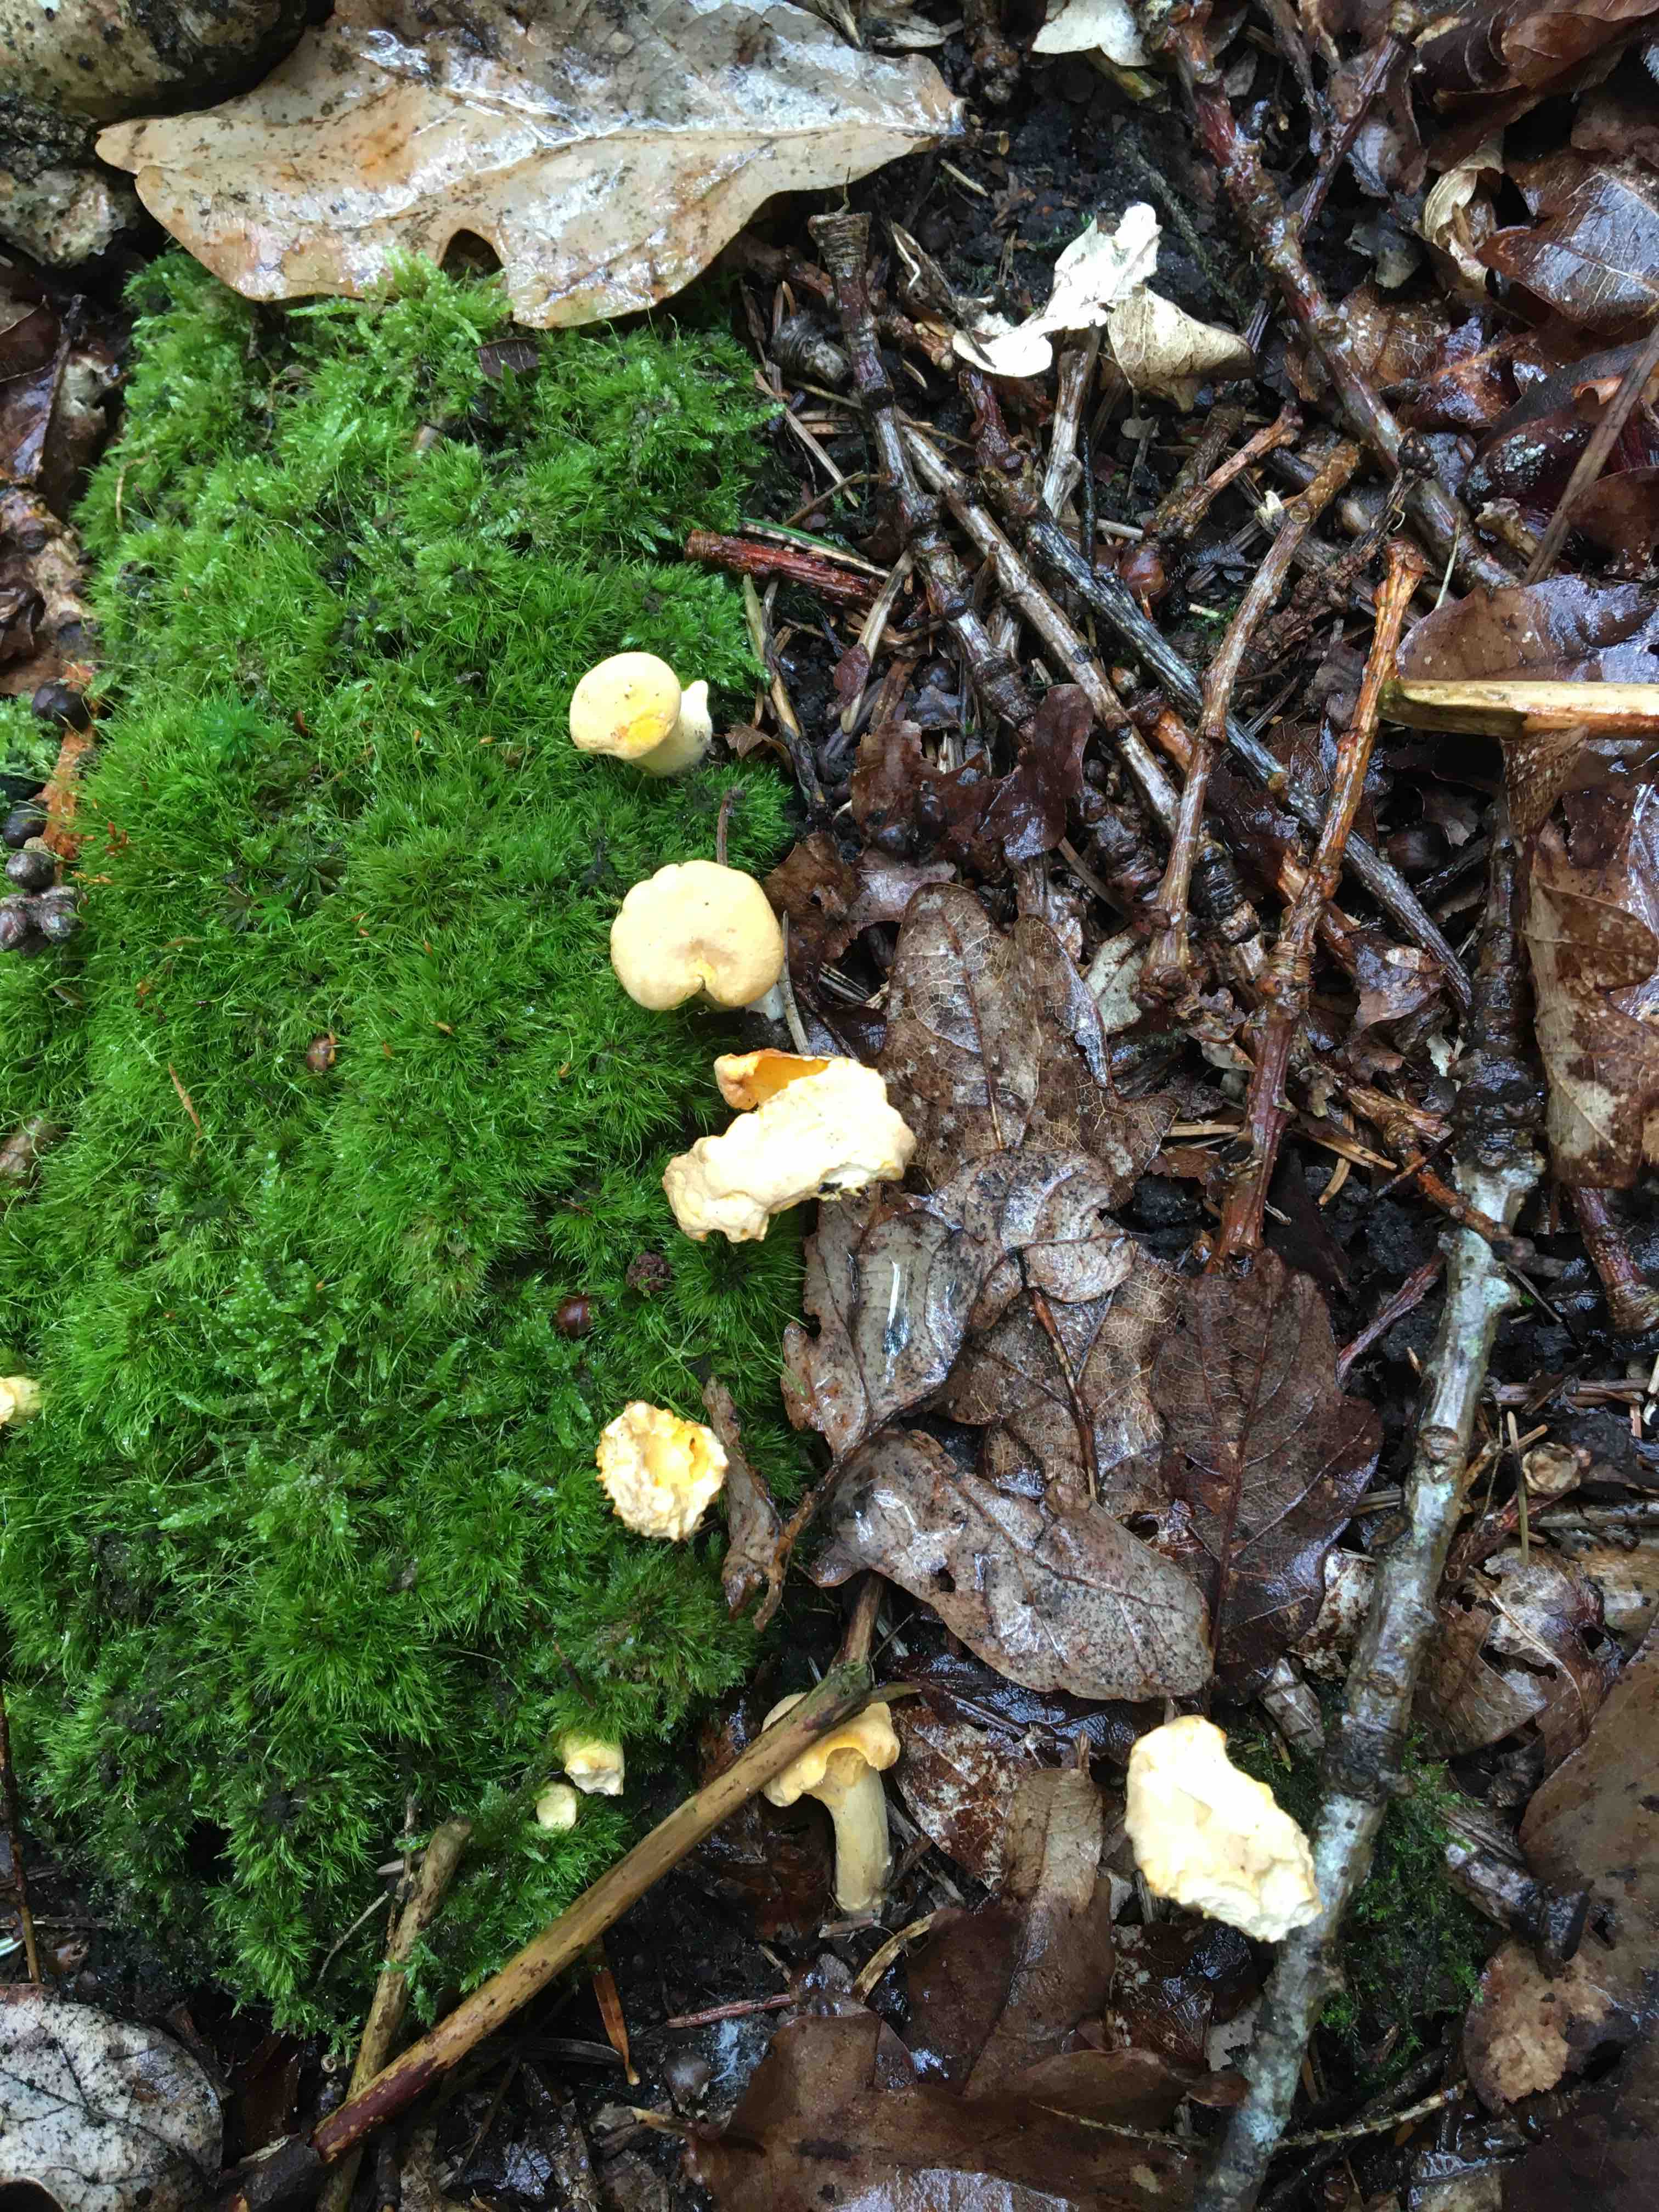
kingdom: Fungi
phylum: Basidiomycota
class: Agaricomycetes
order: Cantharellales
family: Hydnaceae
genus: Cantharellus
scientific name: Cantharellus pallens
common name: bleg kantarel
